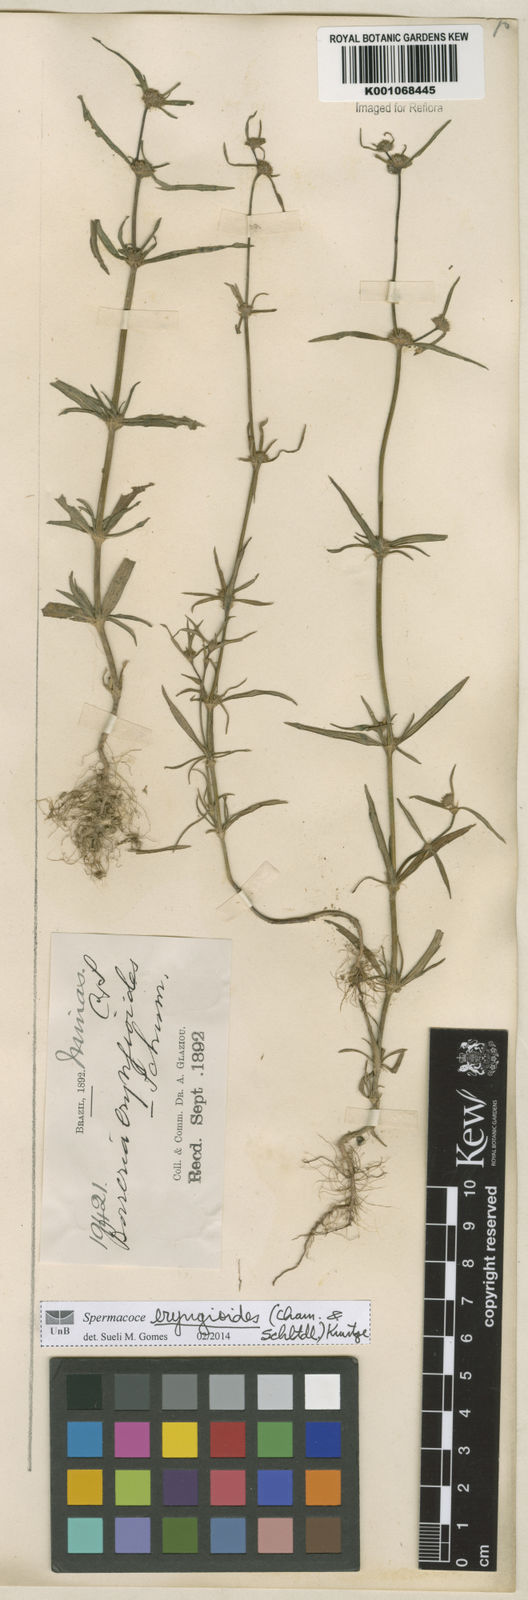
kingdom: Plantae
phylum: Tracheophyta
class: Magnoliopsida
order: Gentianales
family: Rubiaceae
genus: Spermacoce
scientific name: Spermacoce eryngioides
